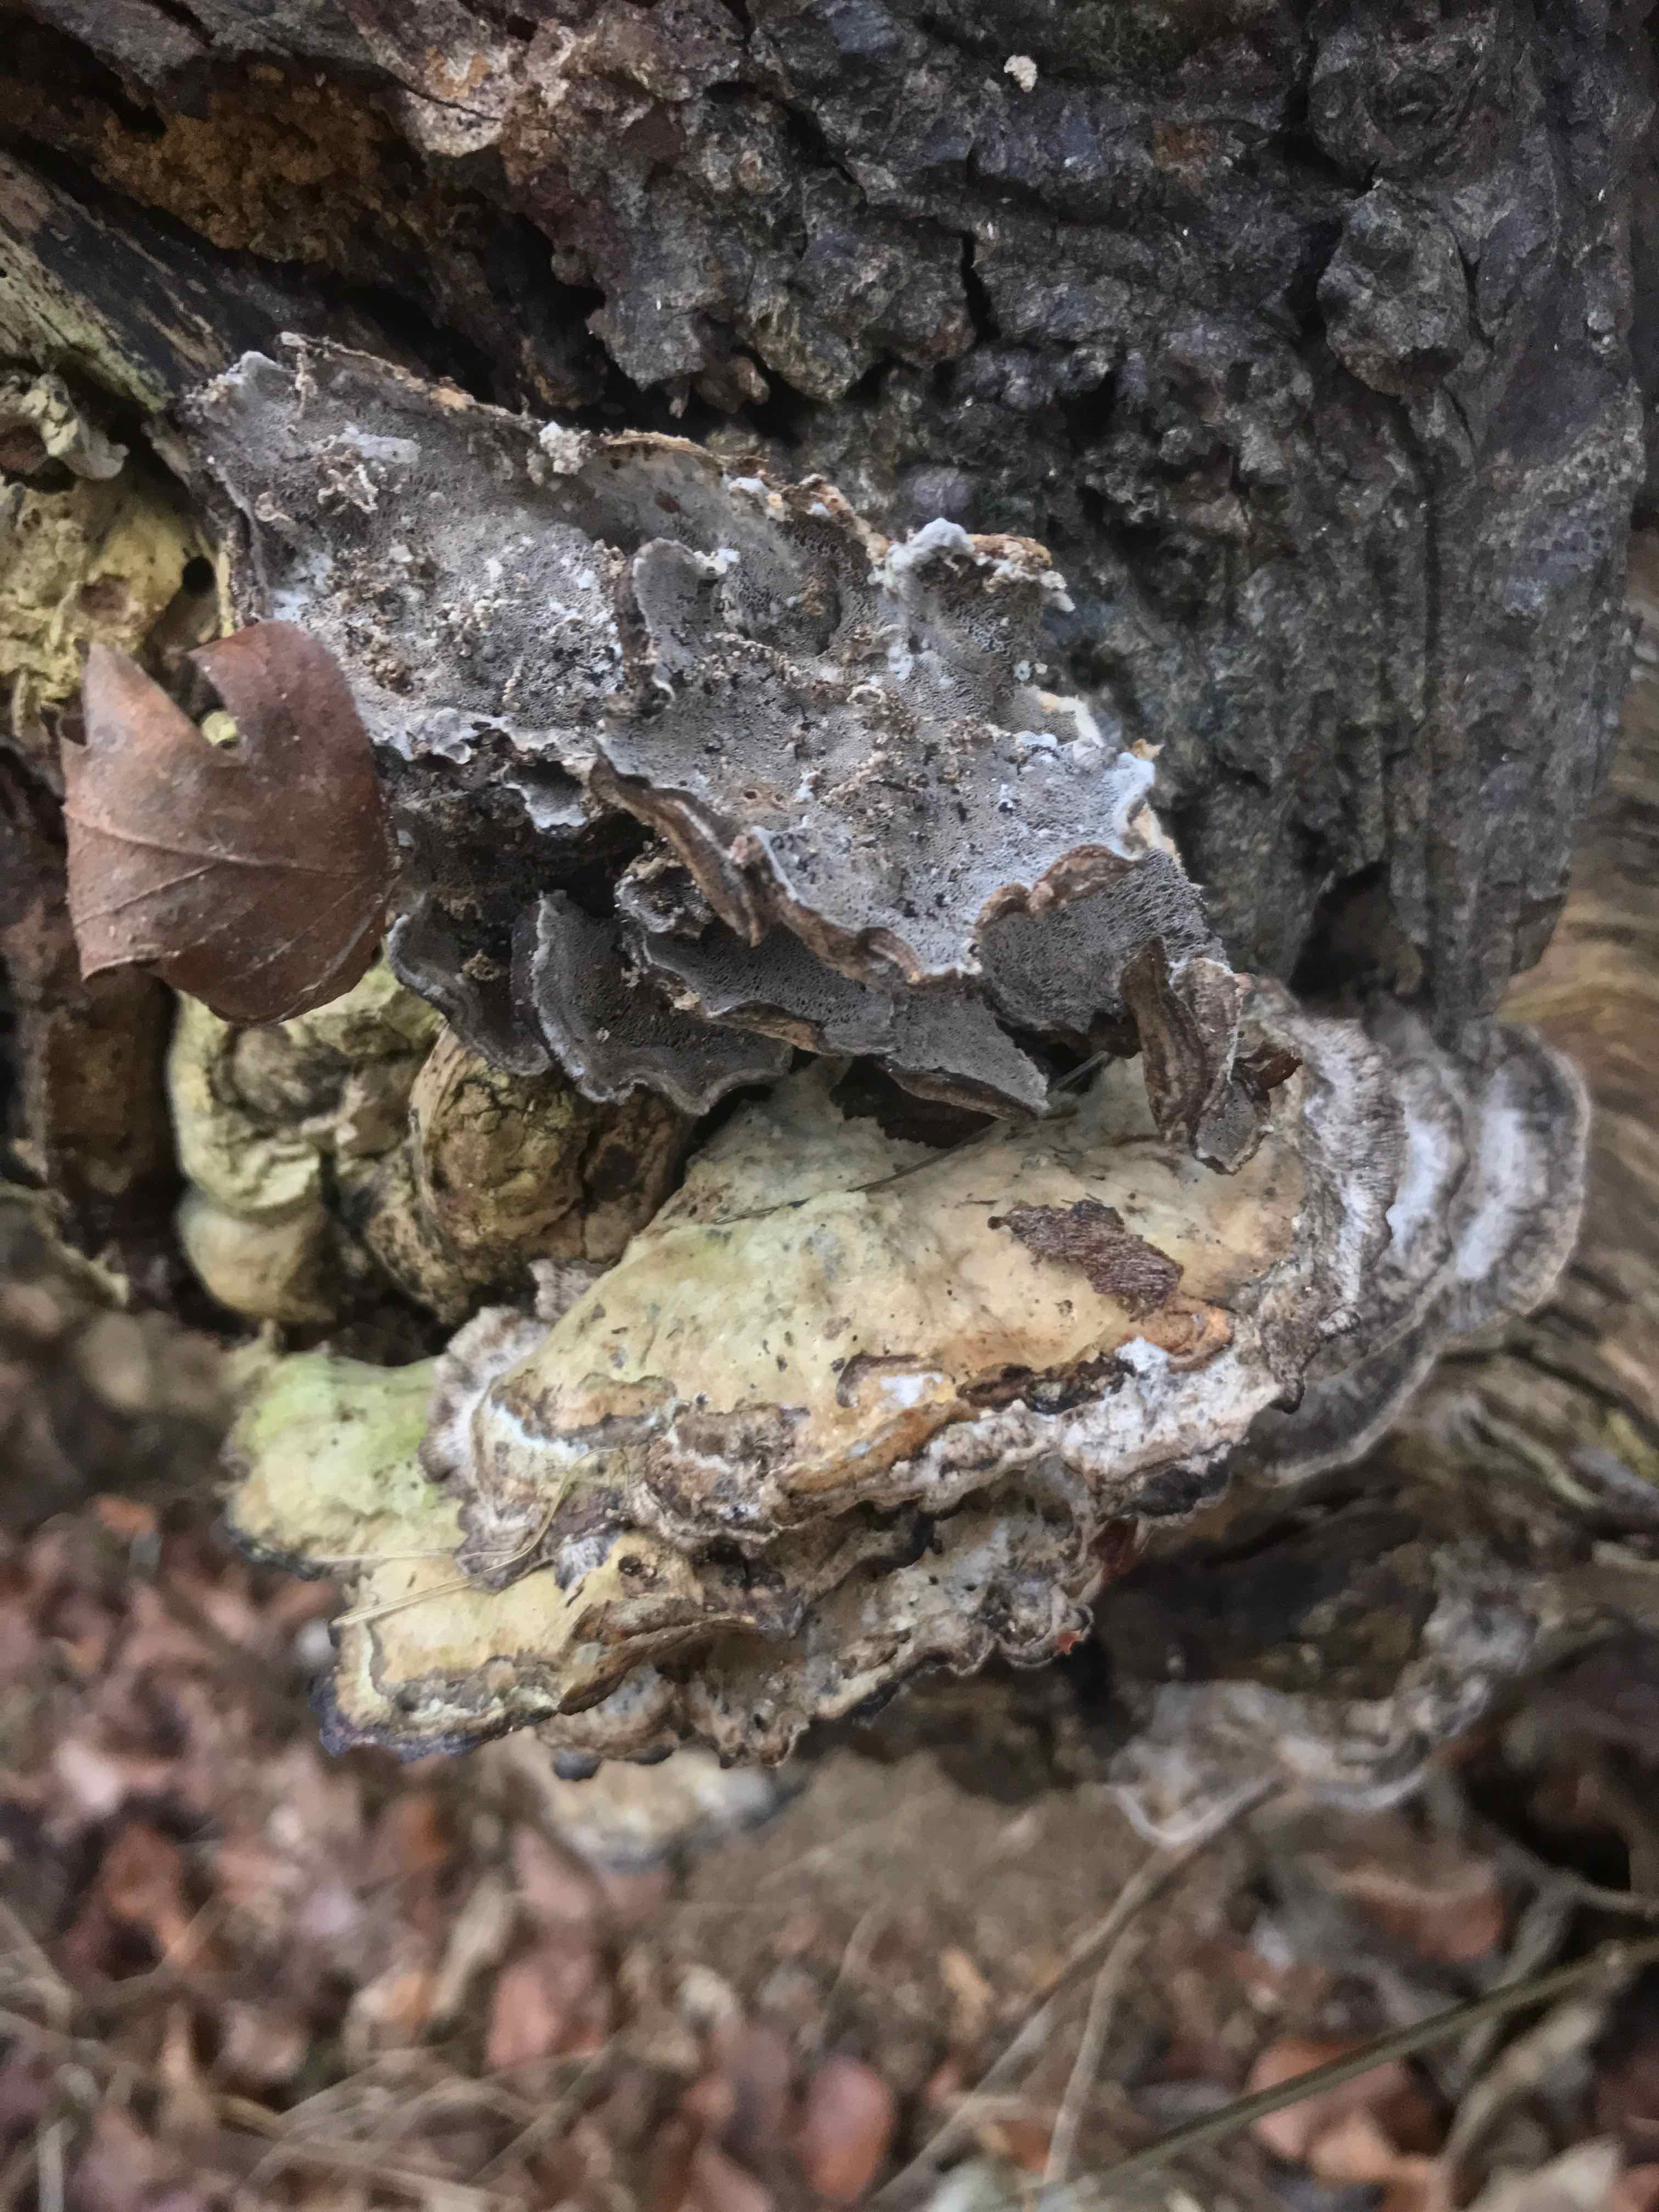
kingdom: Fungi
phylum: Basidiomycota
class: Agaricomycetes
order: Polyporales
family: Phanerochaetaceae
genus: Bjerkandera
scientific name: Bjerkandera adusta
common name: sveden sodporesvamp
